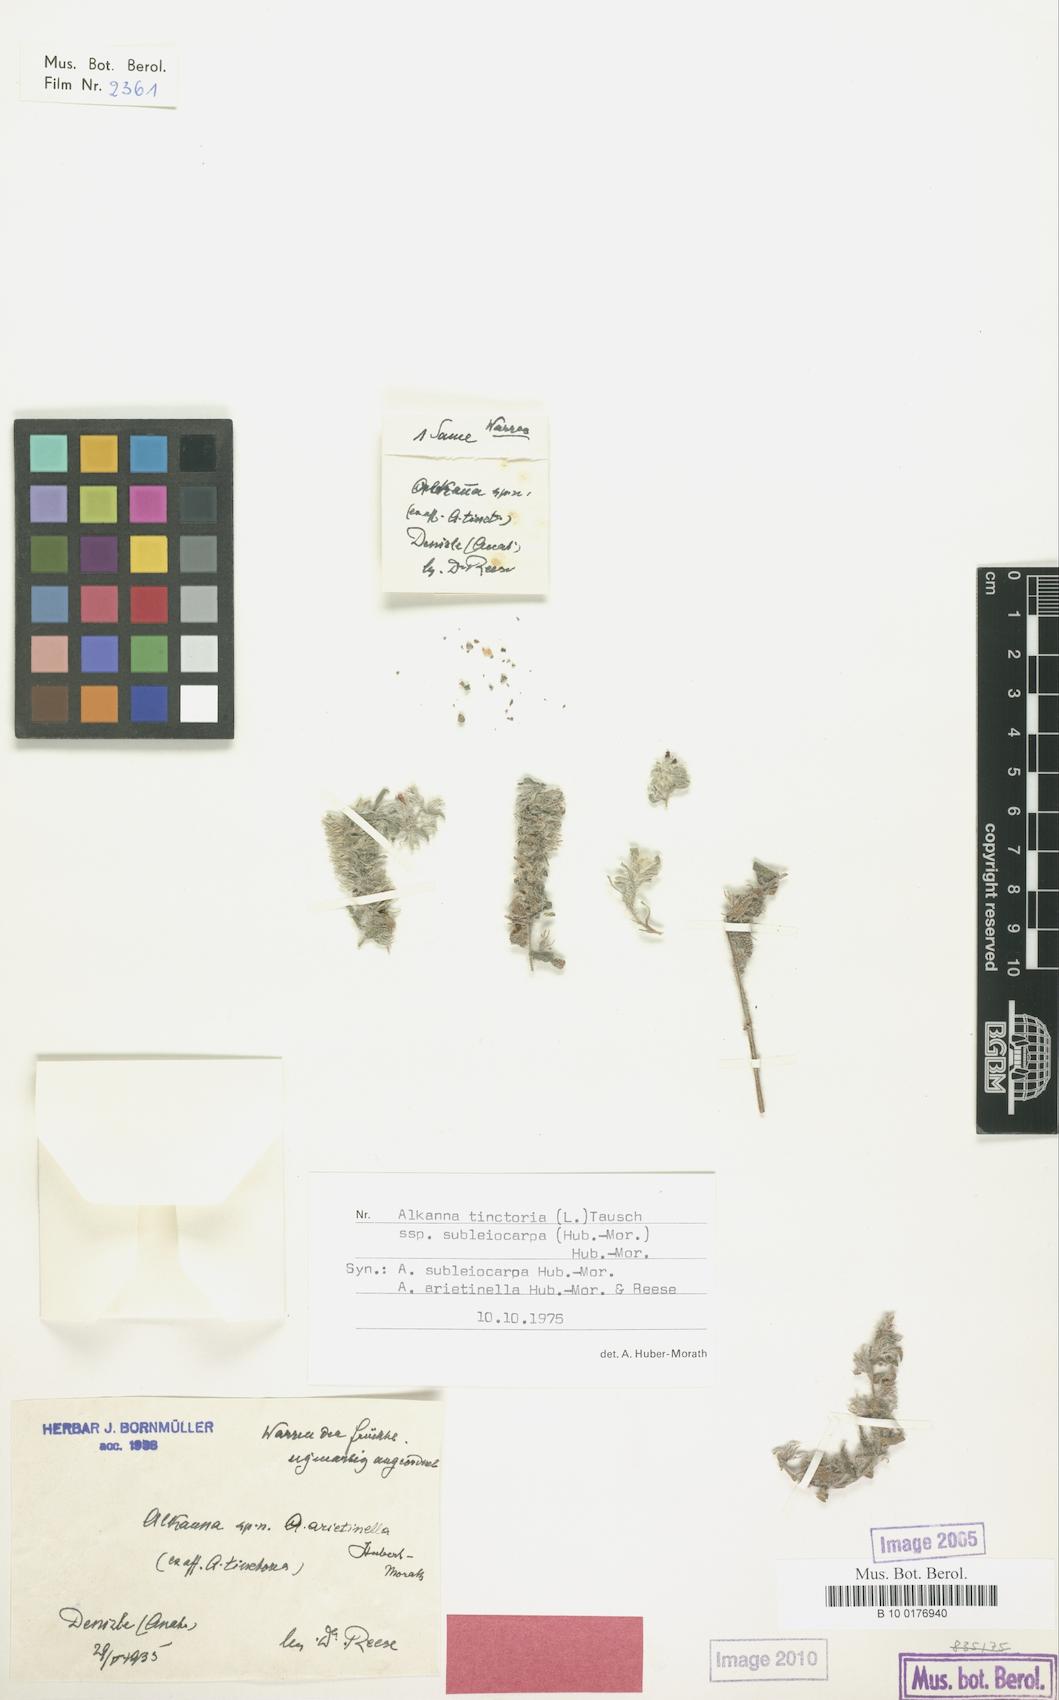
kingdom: Plantae
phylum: Tracheophyta
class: Magnoliopsida
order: Boraginales
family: Boraginaceae
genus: Alkanna
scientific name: Alkanna tinctoria
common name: Dyer's-alkanet
